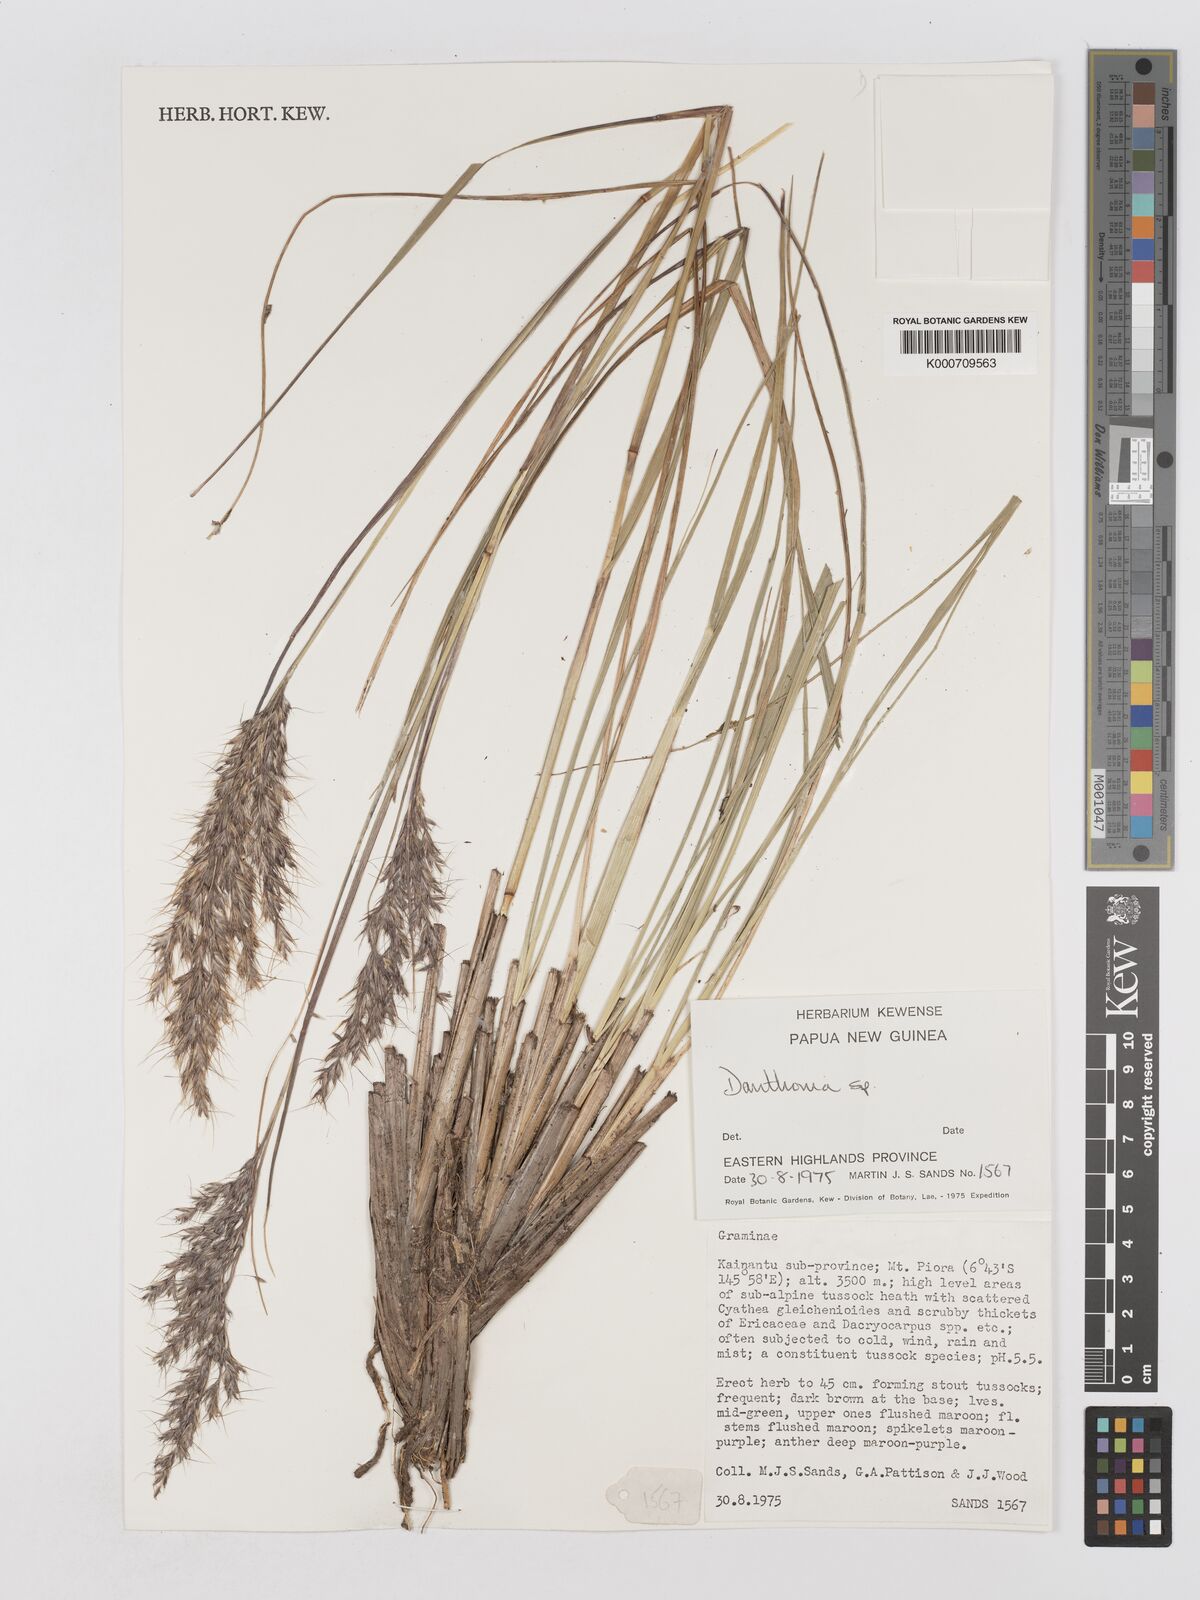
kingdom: Plantae
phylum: Tracheophyta
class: Liliopsida
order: Poales
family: Poaceae
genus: Chimaerochloa
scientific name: Chimaerochloa archboldii
